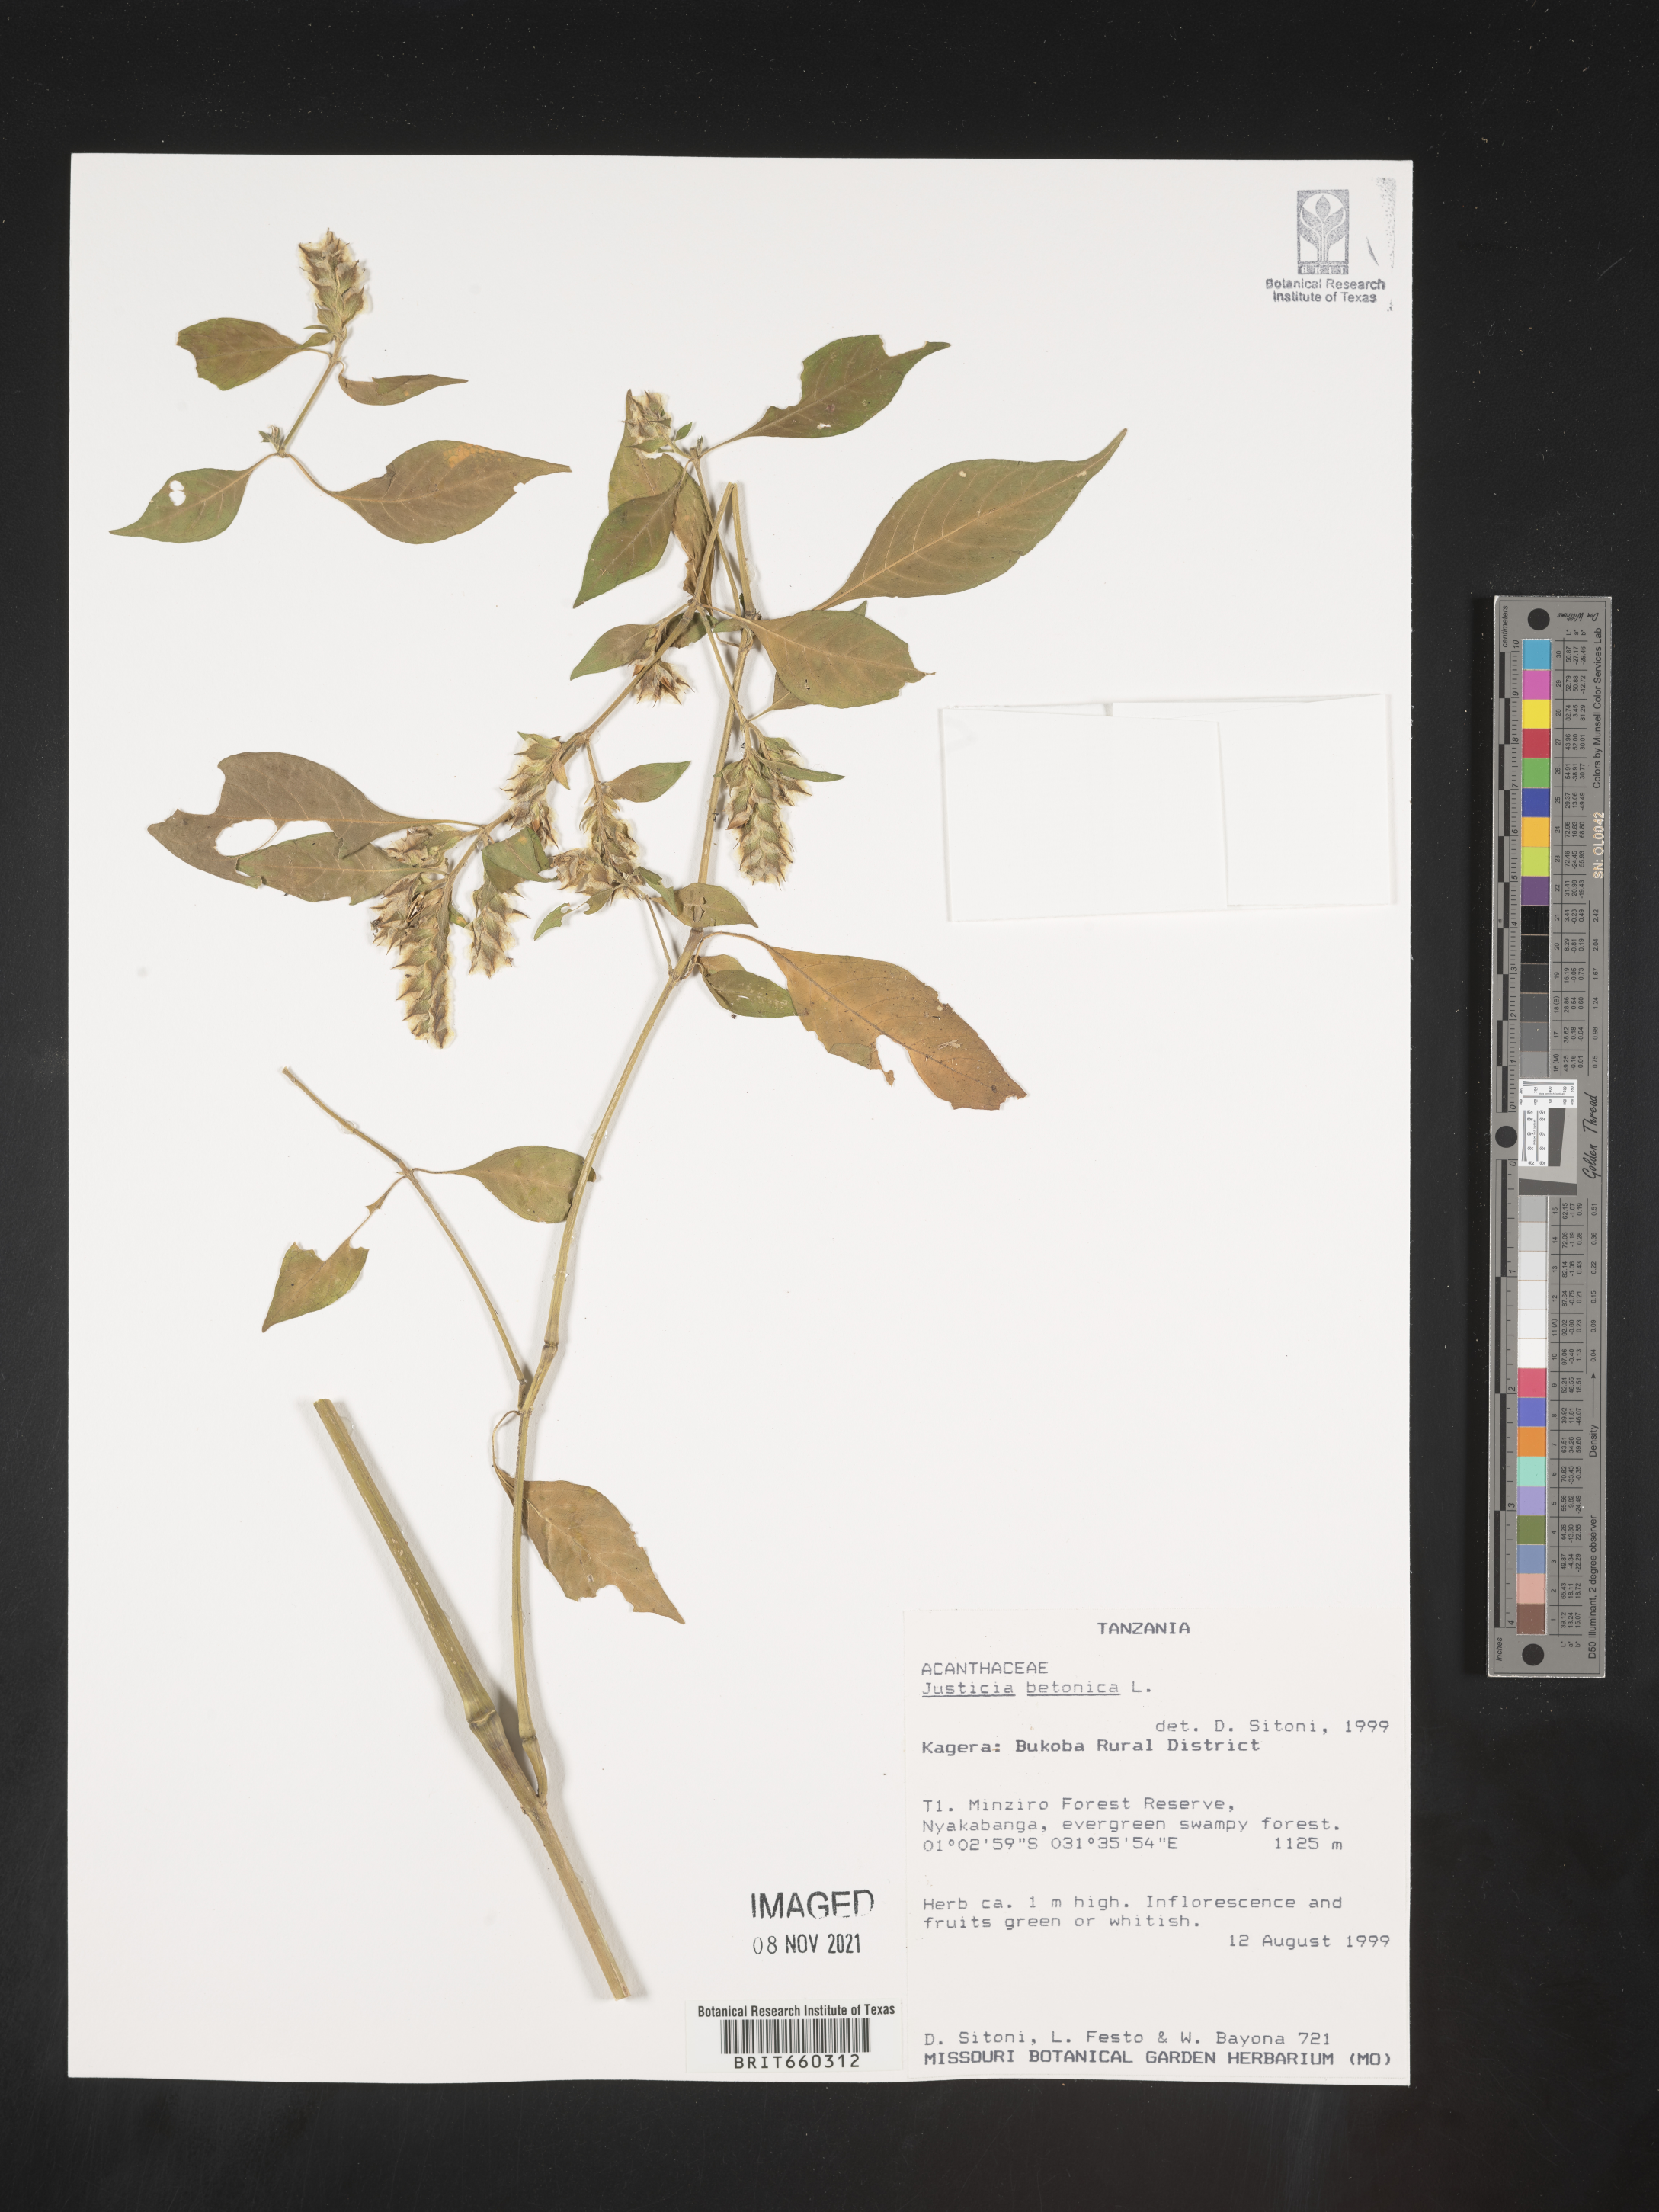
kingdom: Plantae
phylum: Tracheophyta
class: Magnoliopsida
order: Lamiales
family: Acanthaceae
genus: Justicia
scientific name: Justicia
